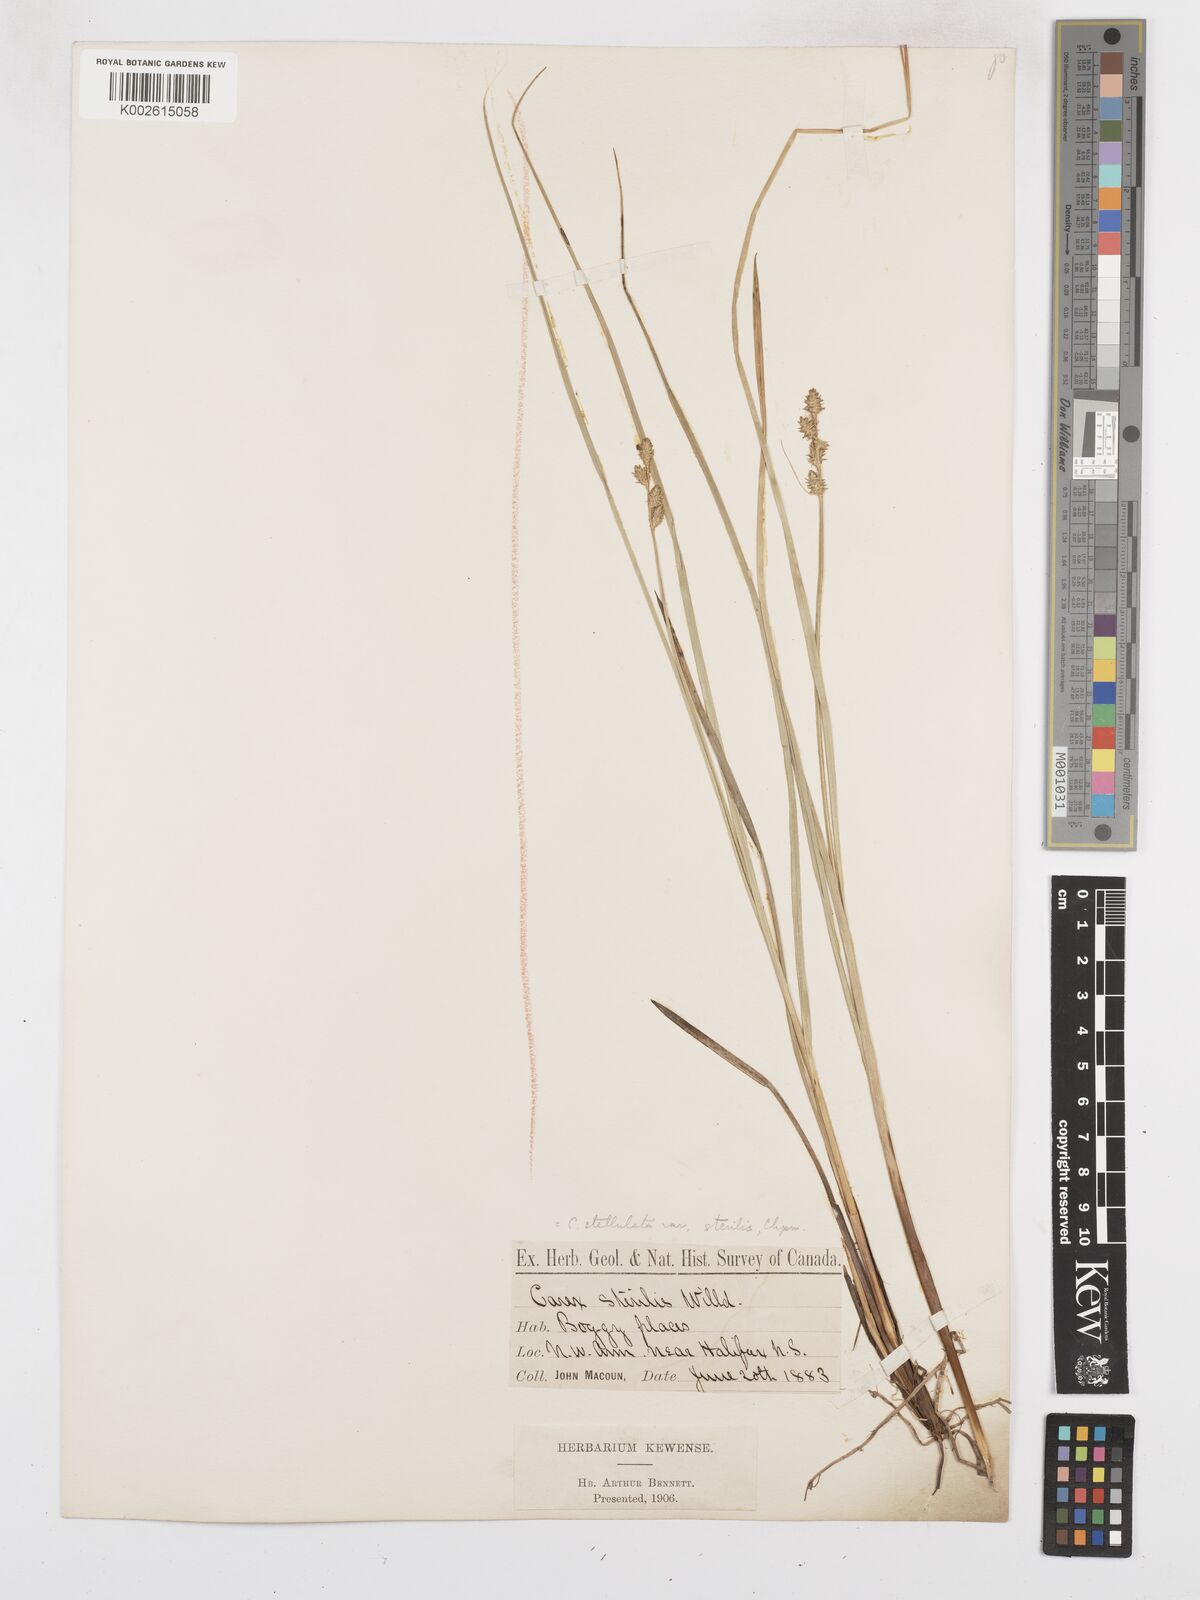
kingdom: Plantae
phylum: Tracheophyta
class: Liliopsida
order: Poales
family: Cyperaceae
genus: Carex
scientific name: Carex sterilis
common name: Dioecious sedge
